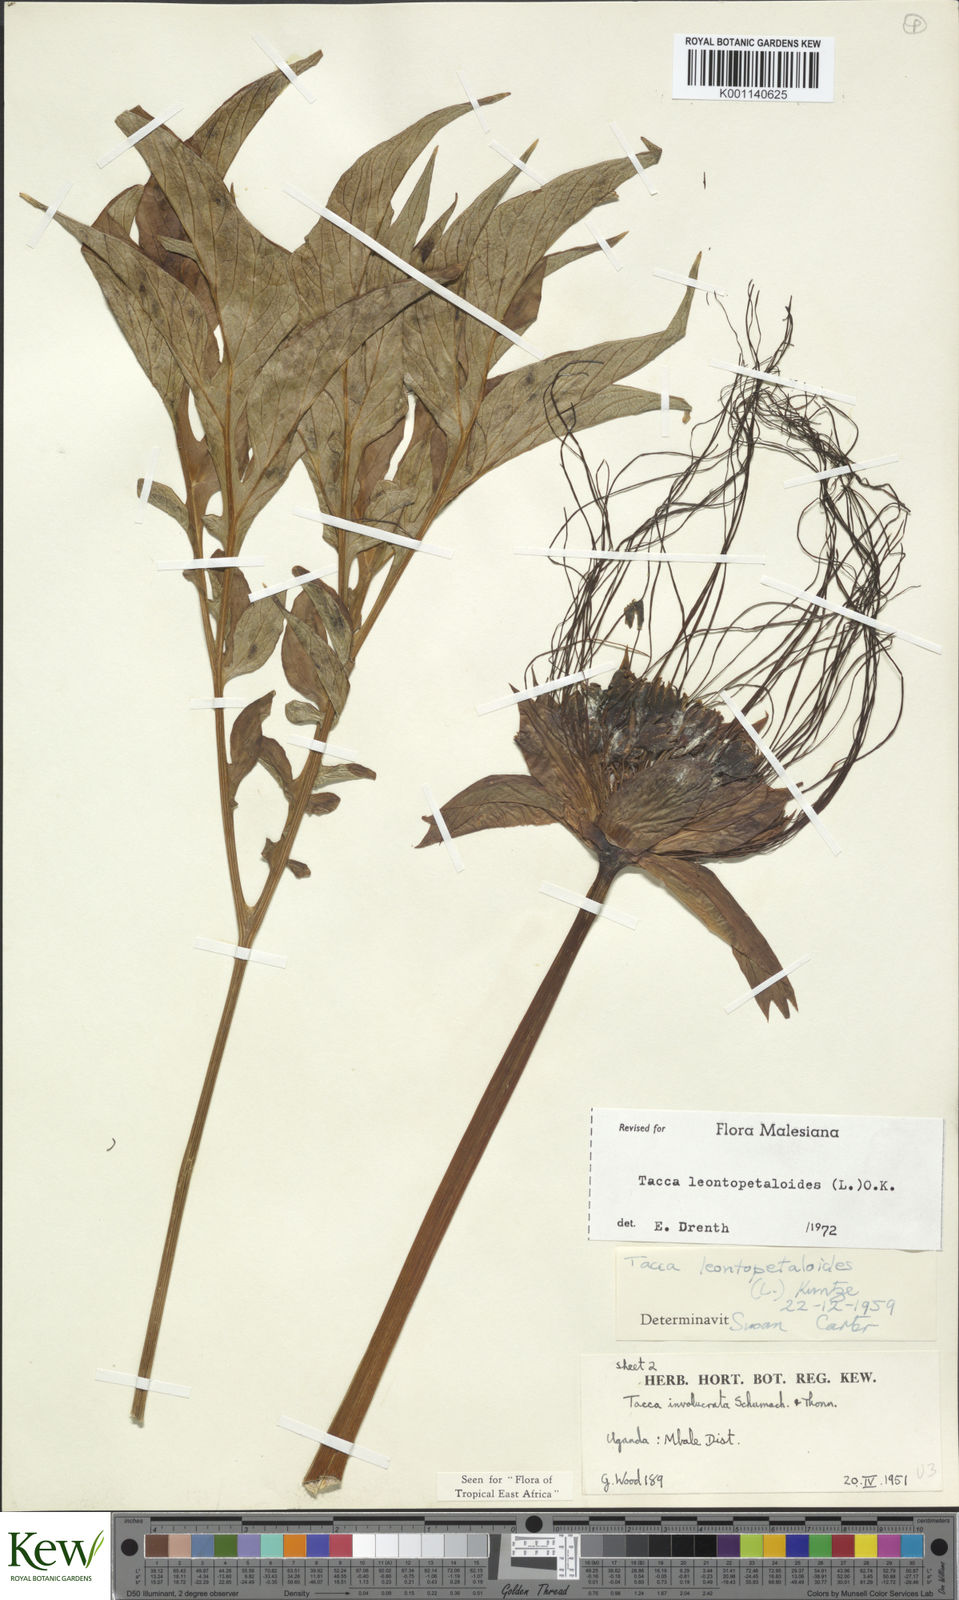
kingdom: Plantae
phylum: Tracheophyta
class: Liliopsida
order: Dioscoreales
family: Dioscoreaceae
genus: Tacca
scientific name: Tacca leontopetaloides
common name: Arrowroot
